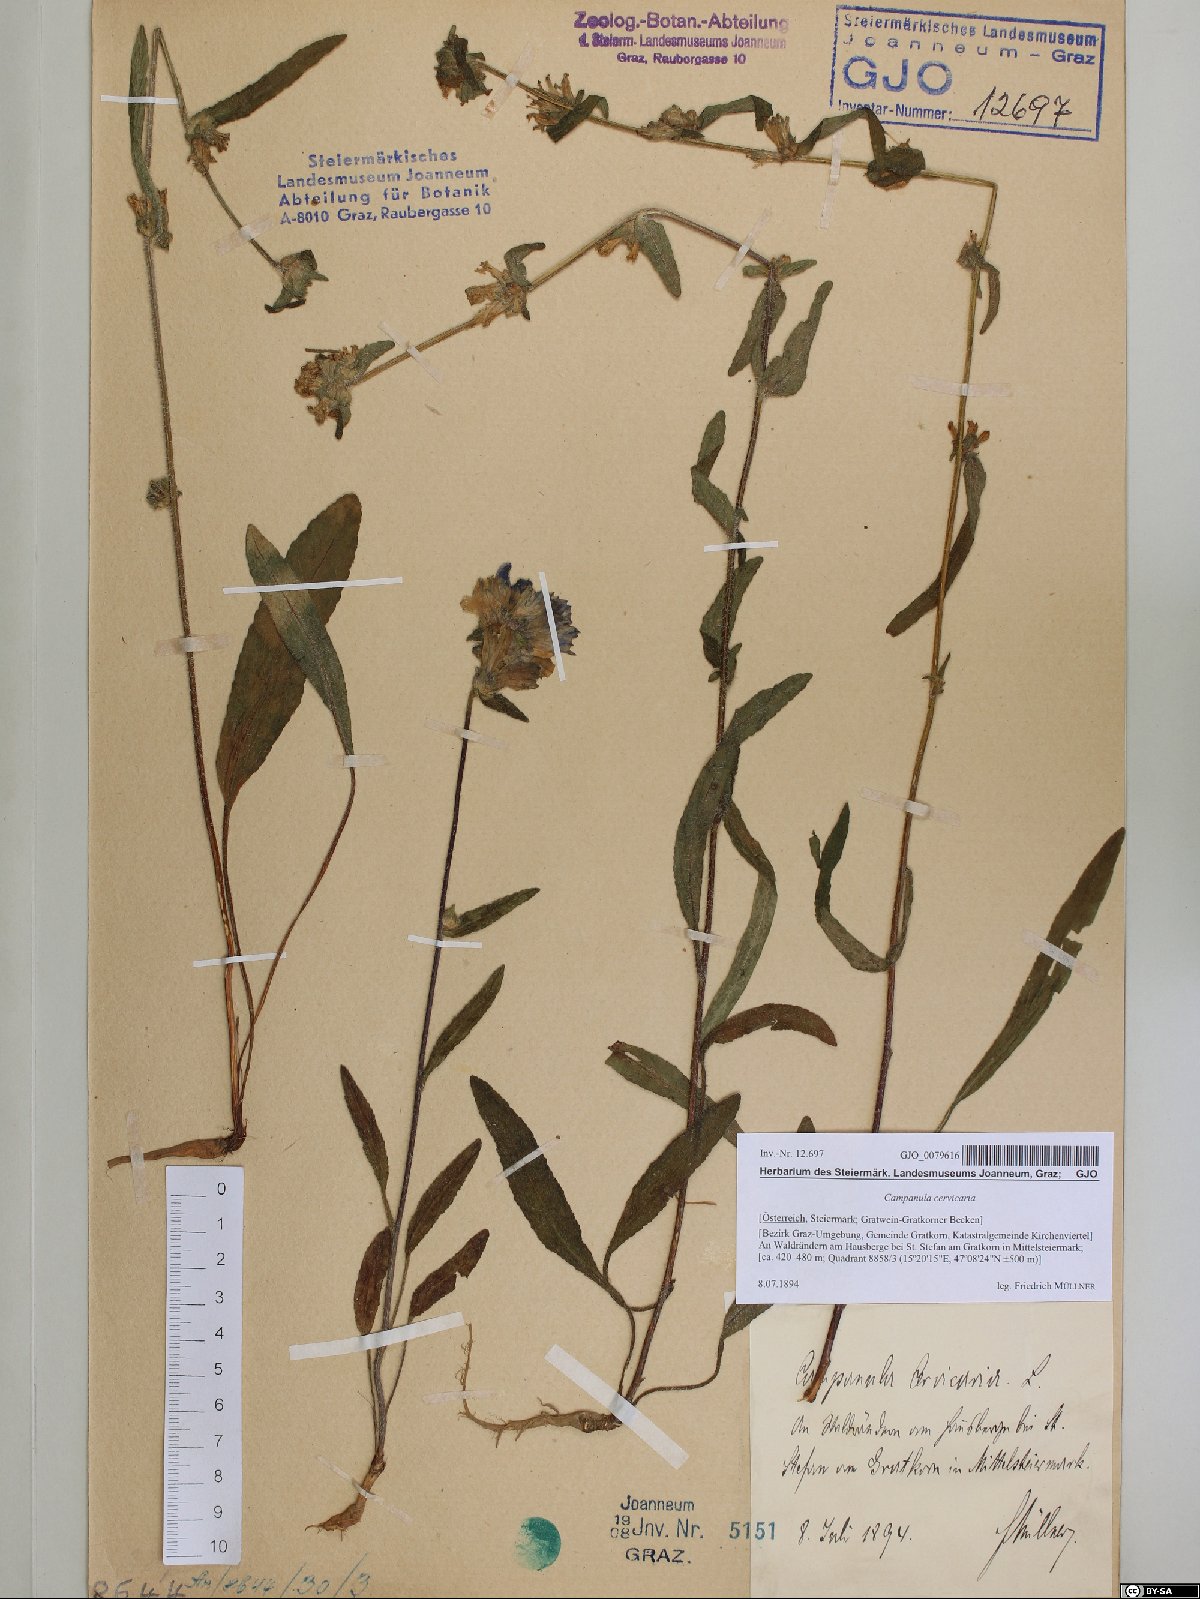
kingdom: Plantae
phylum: Tracheophyta
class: Magnoliopsida
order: Asterales
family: Campanulaceae
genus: Campanula
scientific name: Campanula cervicaria
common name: Bristly bellflower
